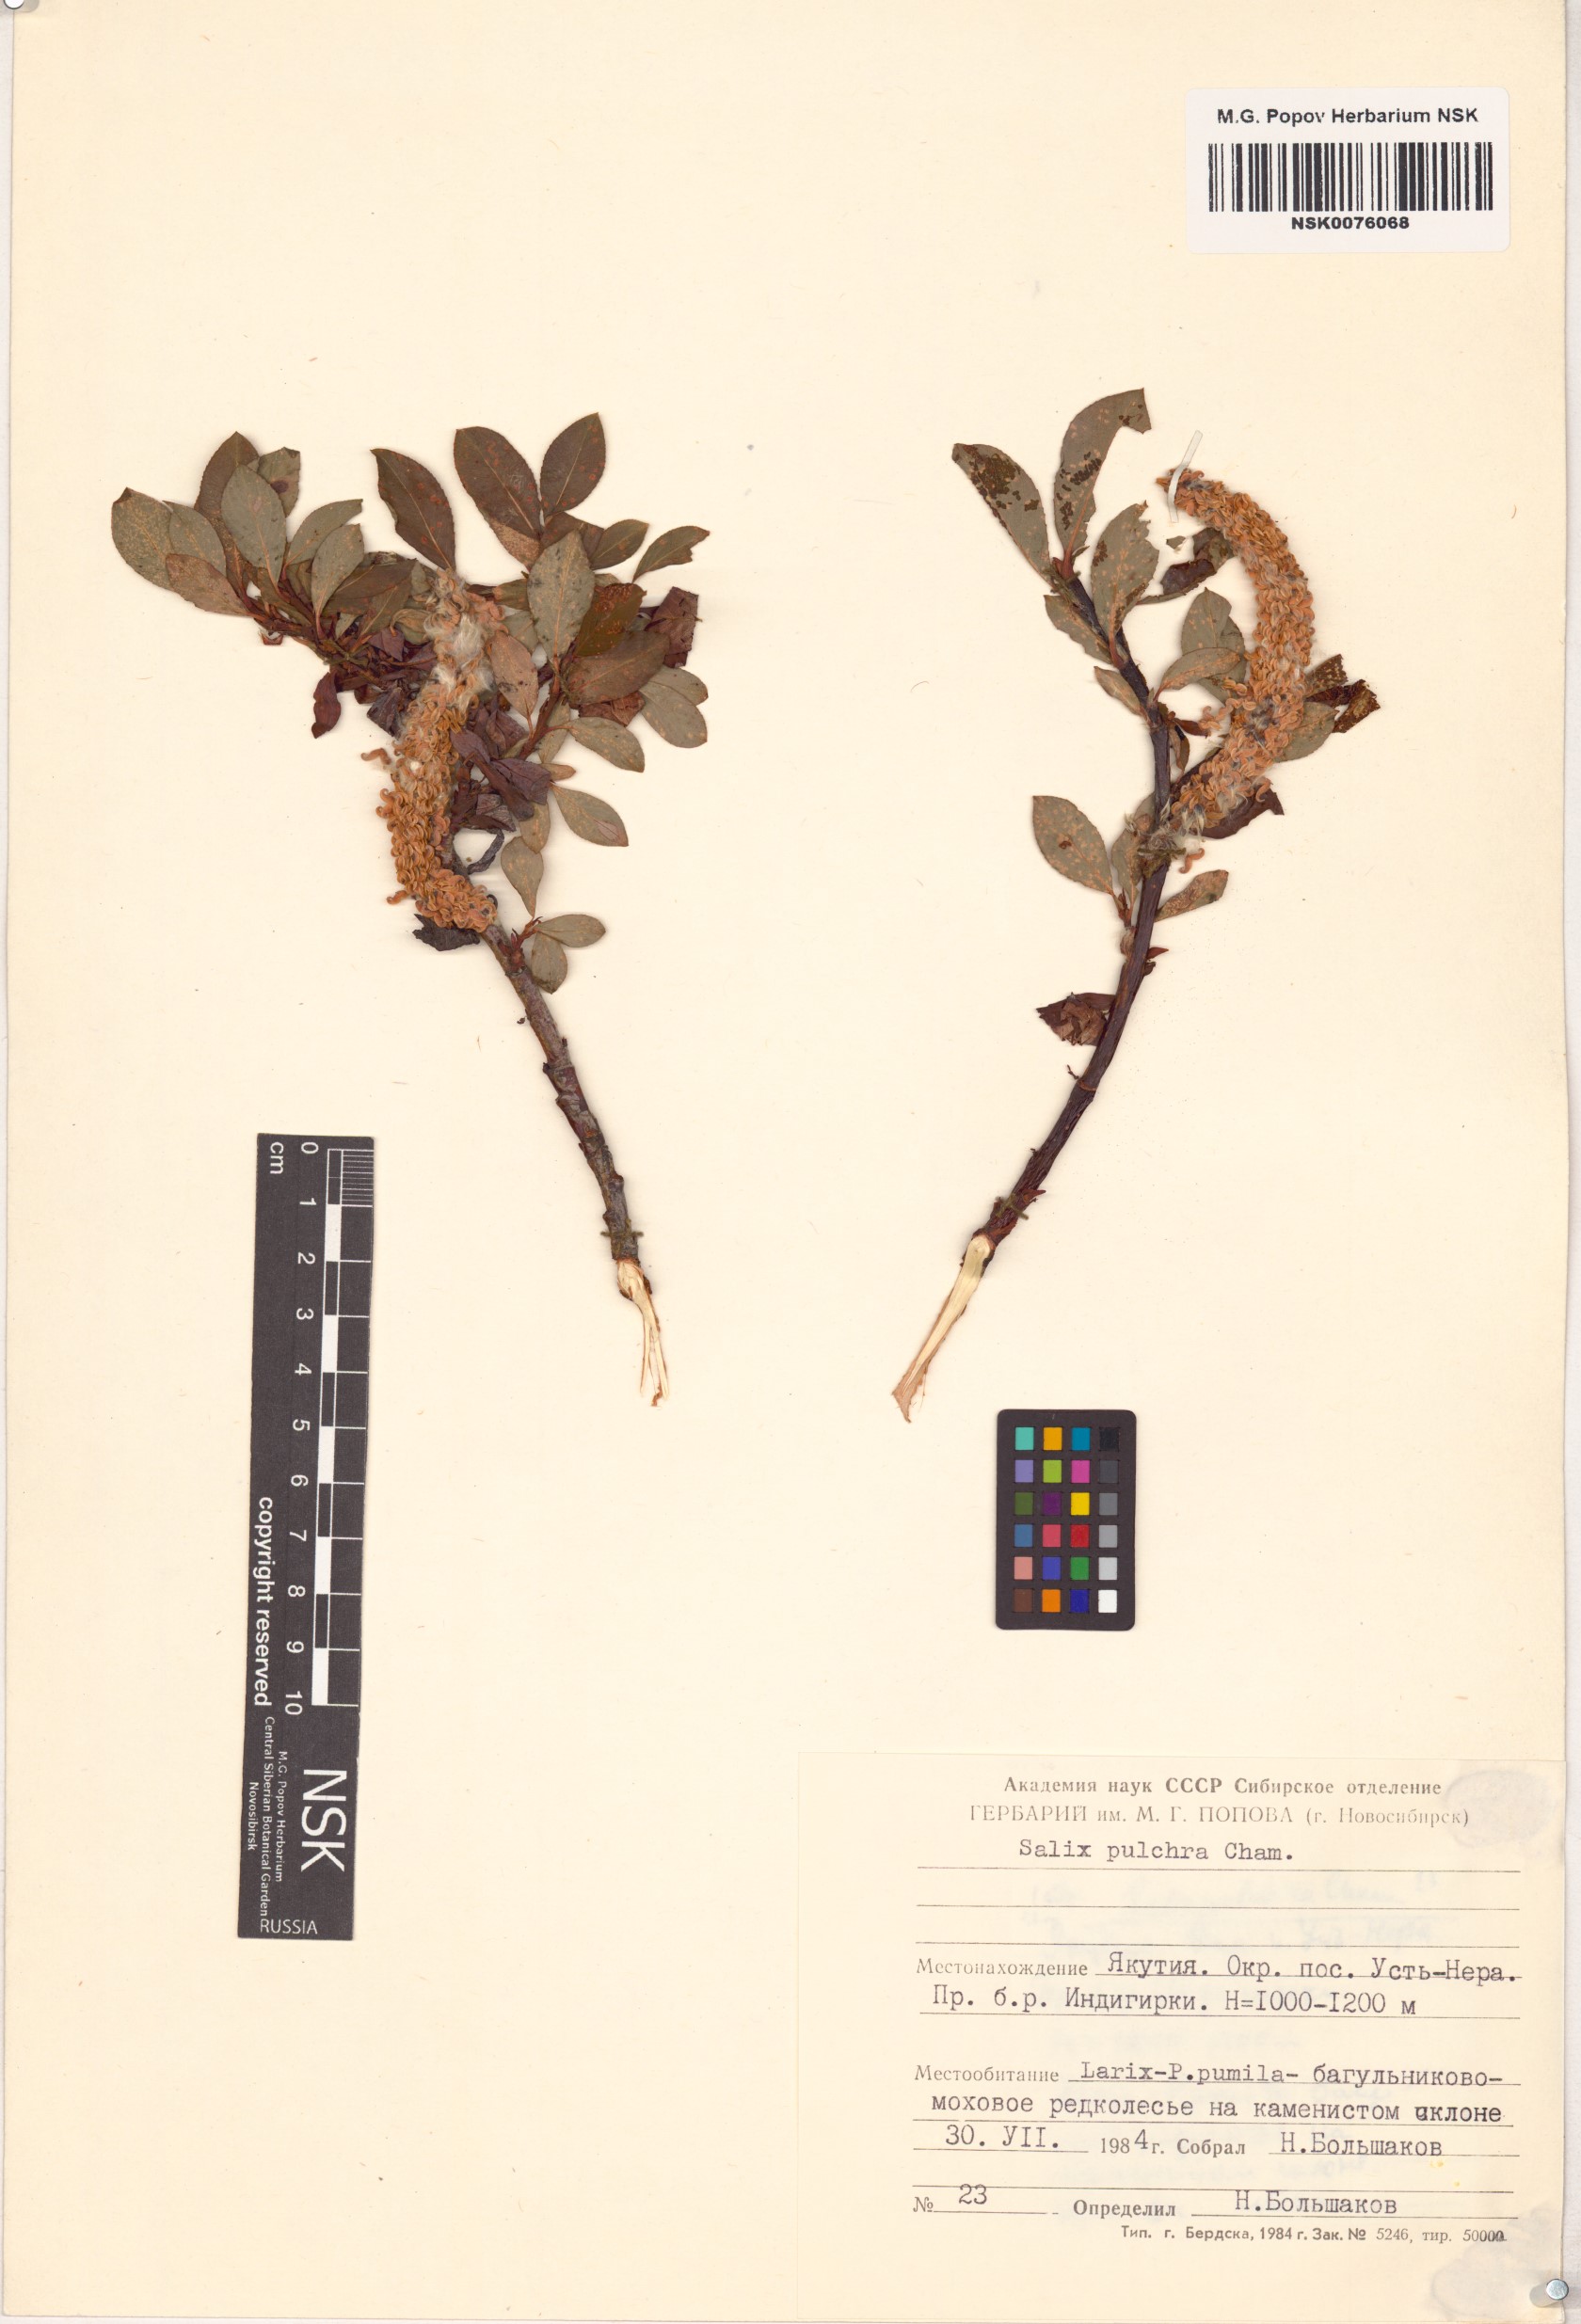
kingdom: Plantae
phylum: Tracheophyta
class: Magnoliopsida
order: Malpighiales
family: Salicaceae
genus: Salix
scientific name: Salix pulchra
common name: Diamond-leaved willow
